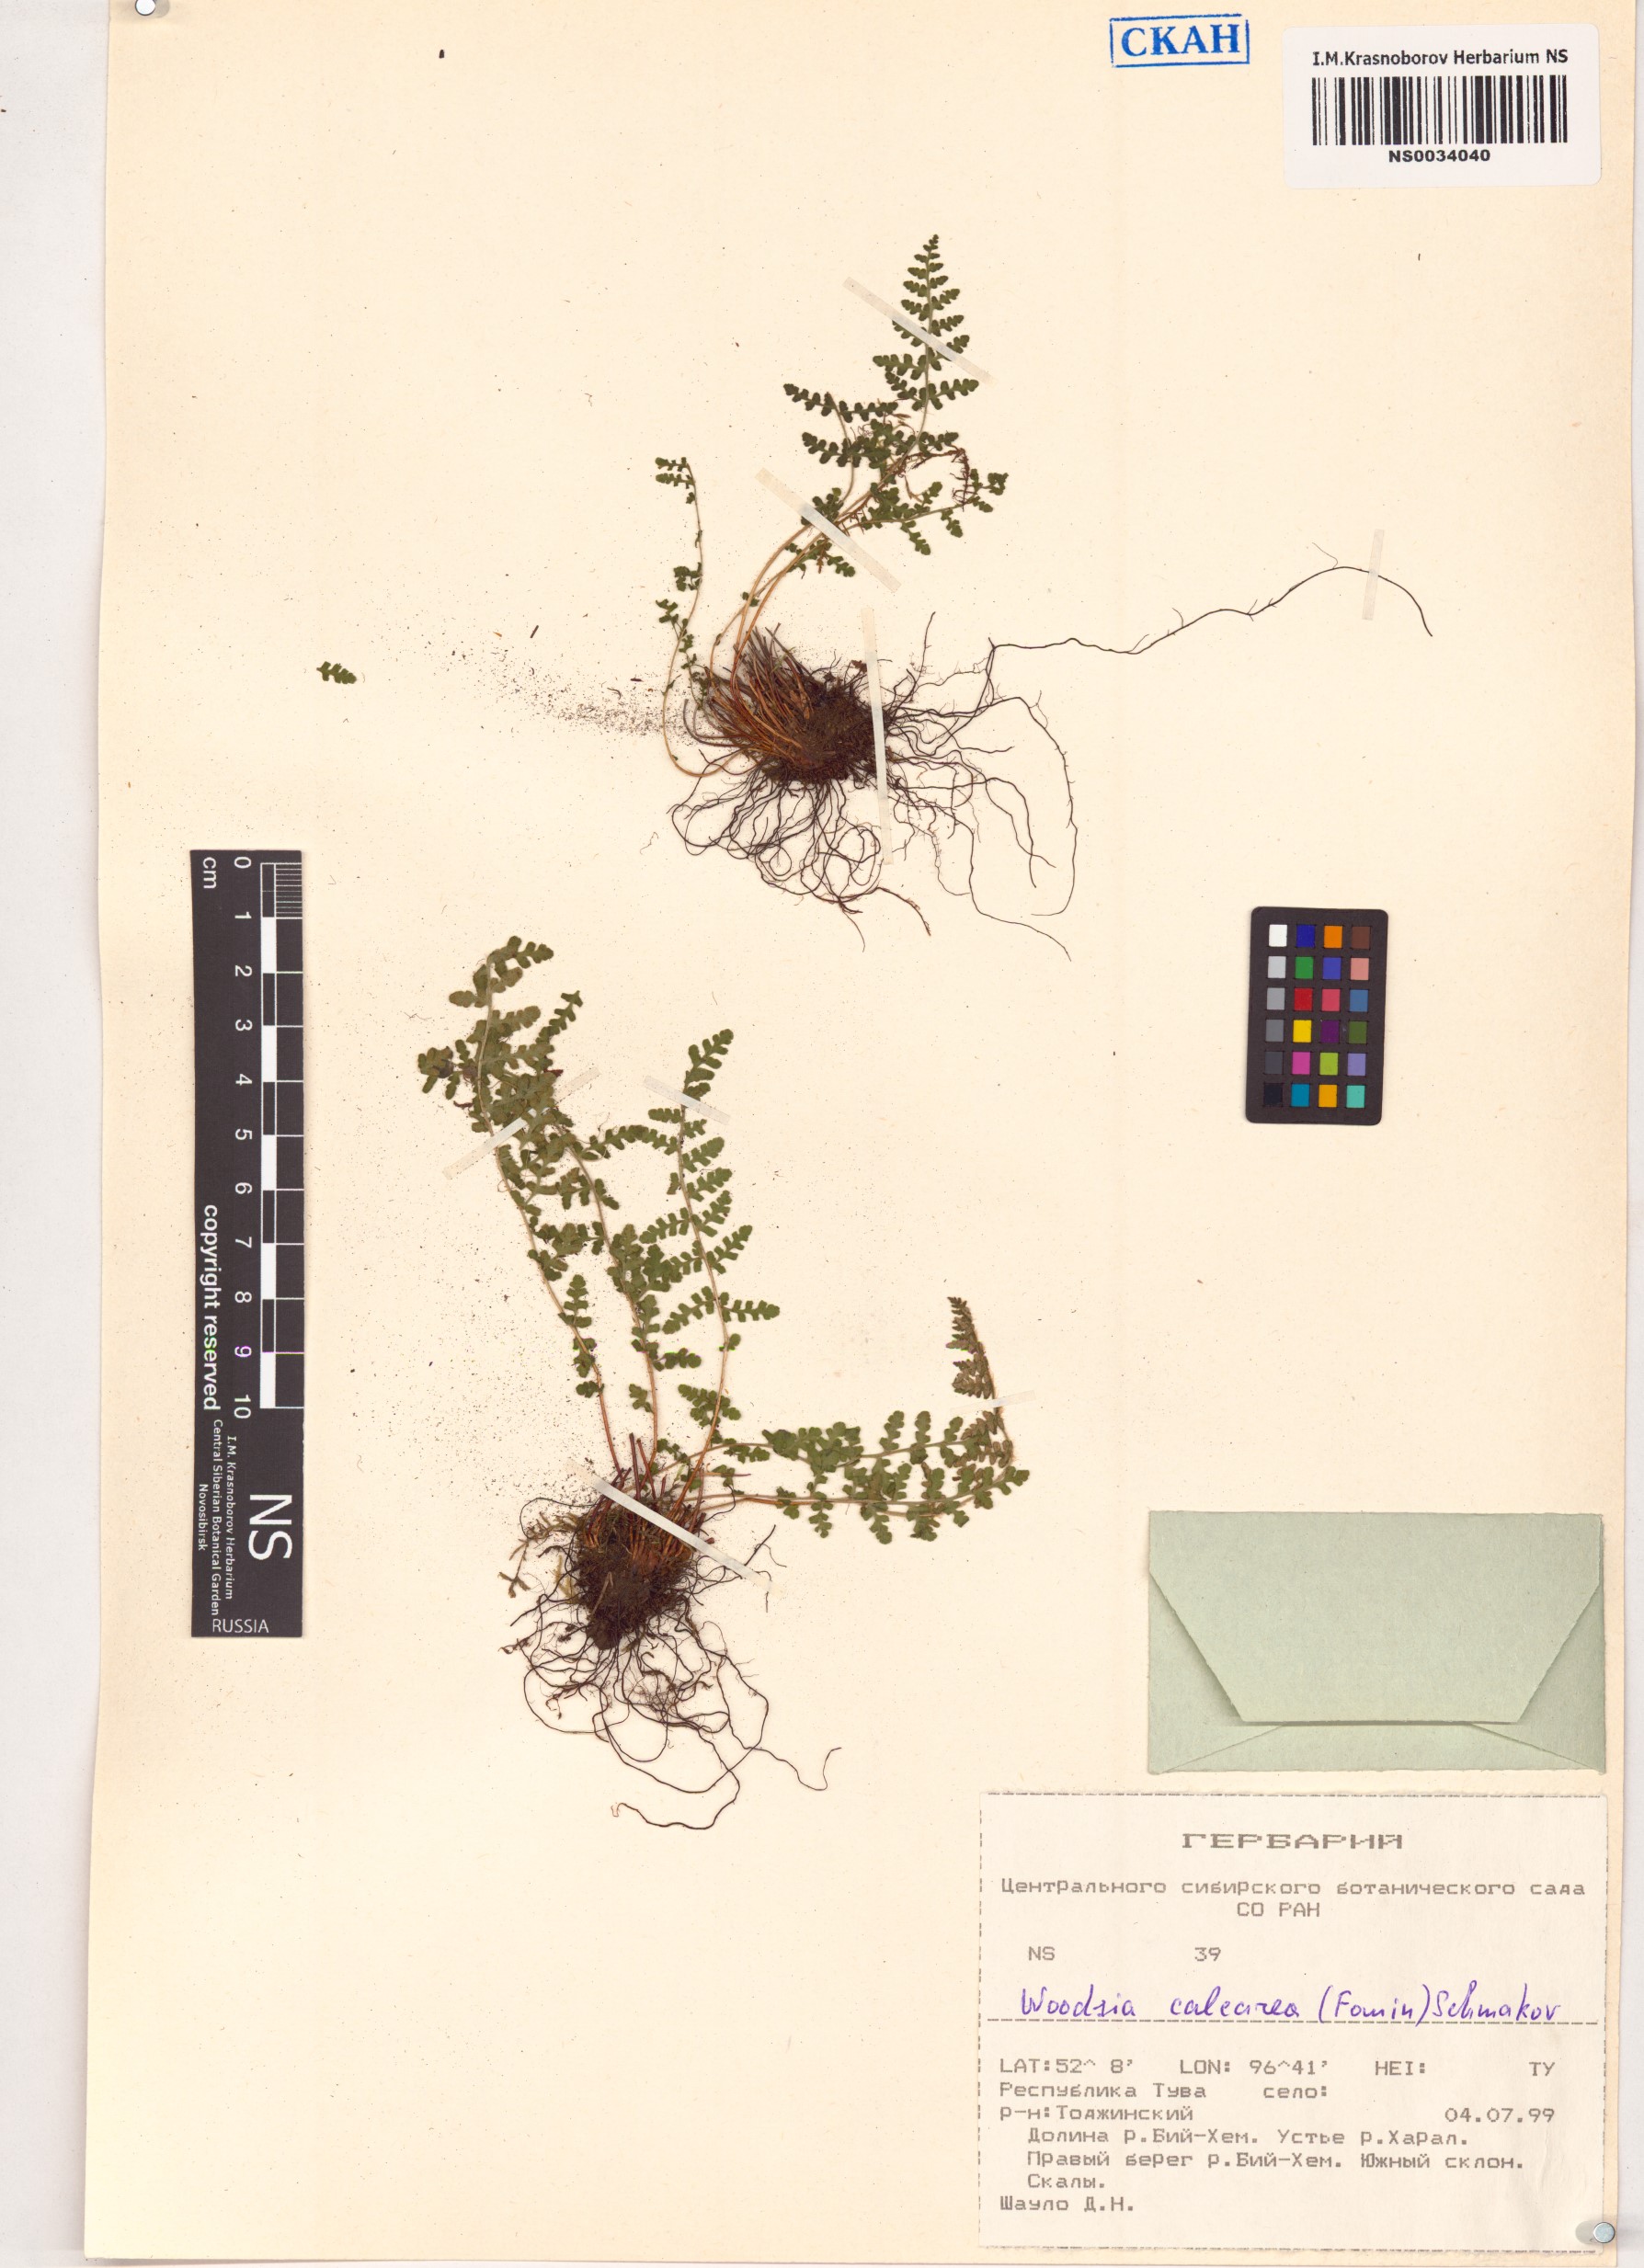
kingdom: Plantae
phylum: Tracheophyta
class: Polypodiopsida
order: Polypodiales
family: Woodsiaceae
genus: Woodsia
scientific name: Woodsia calcarea
